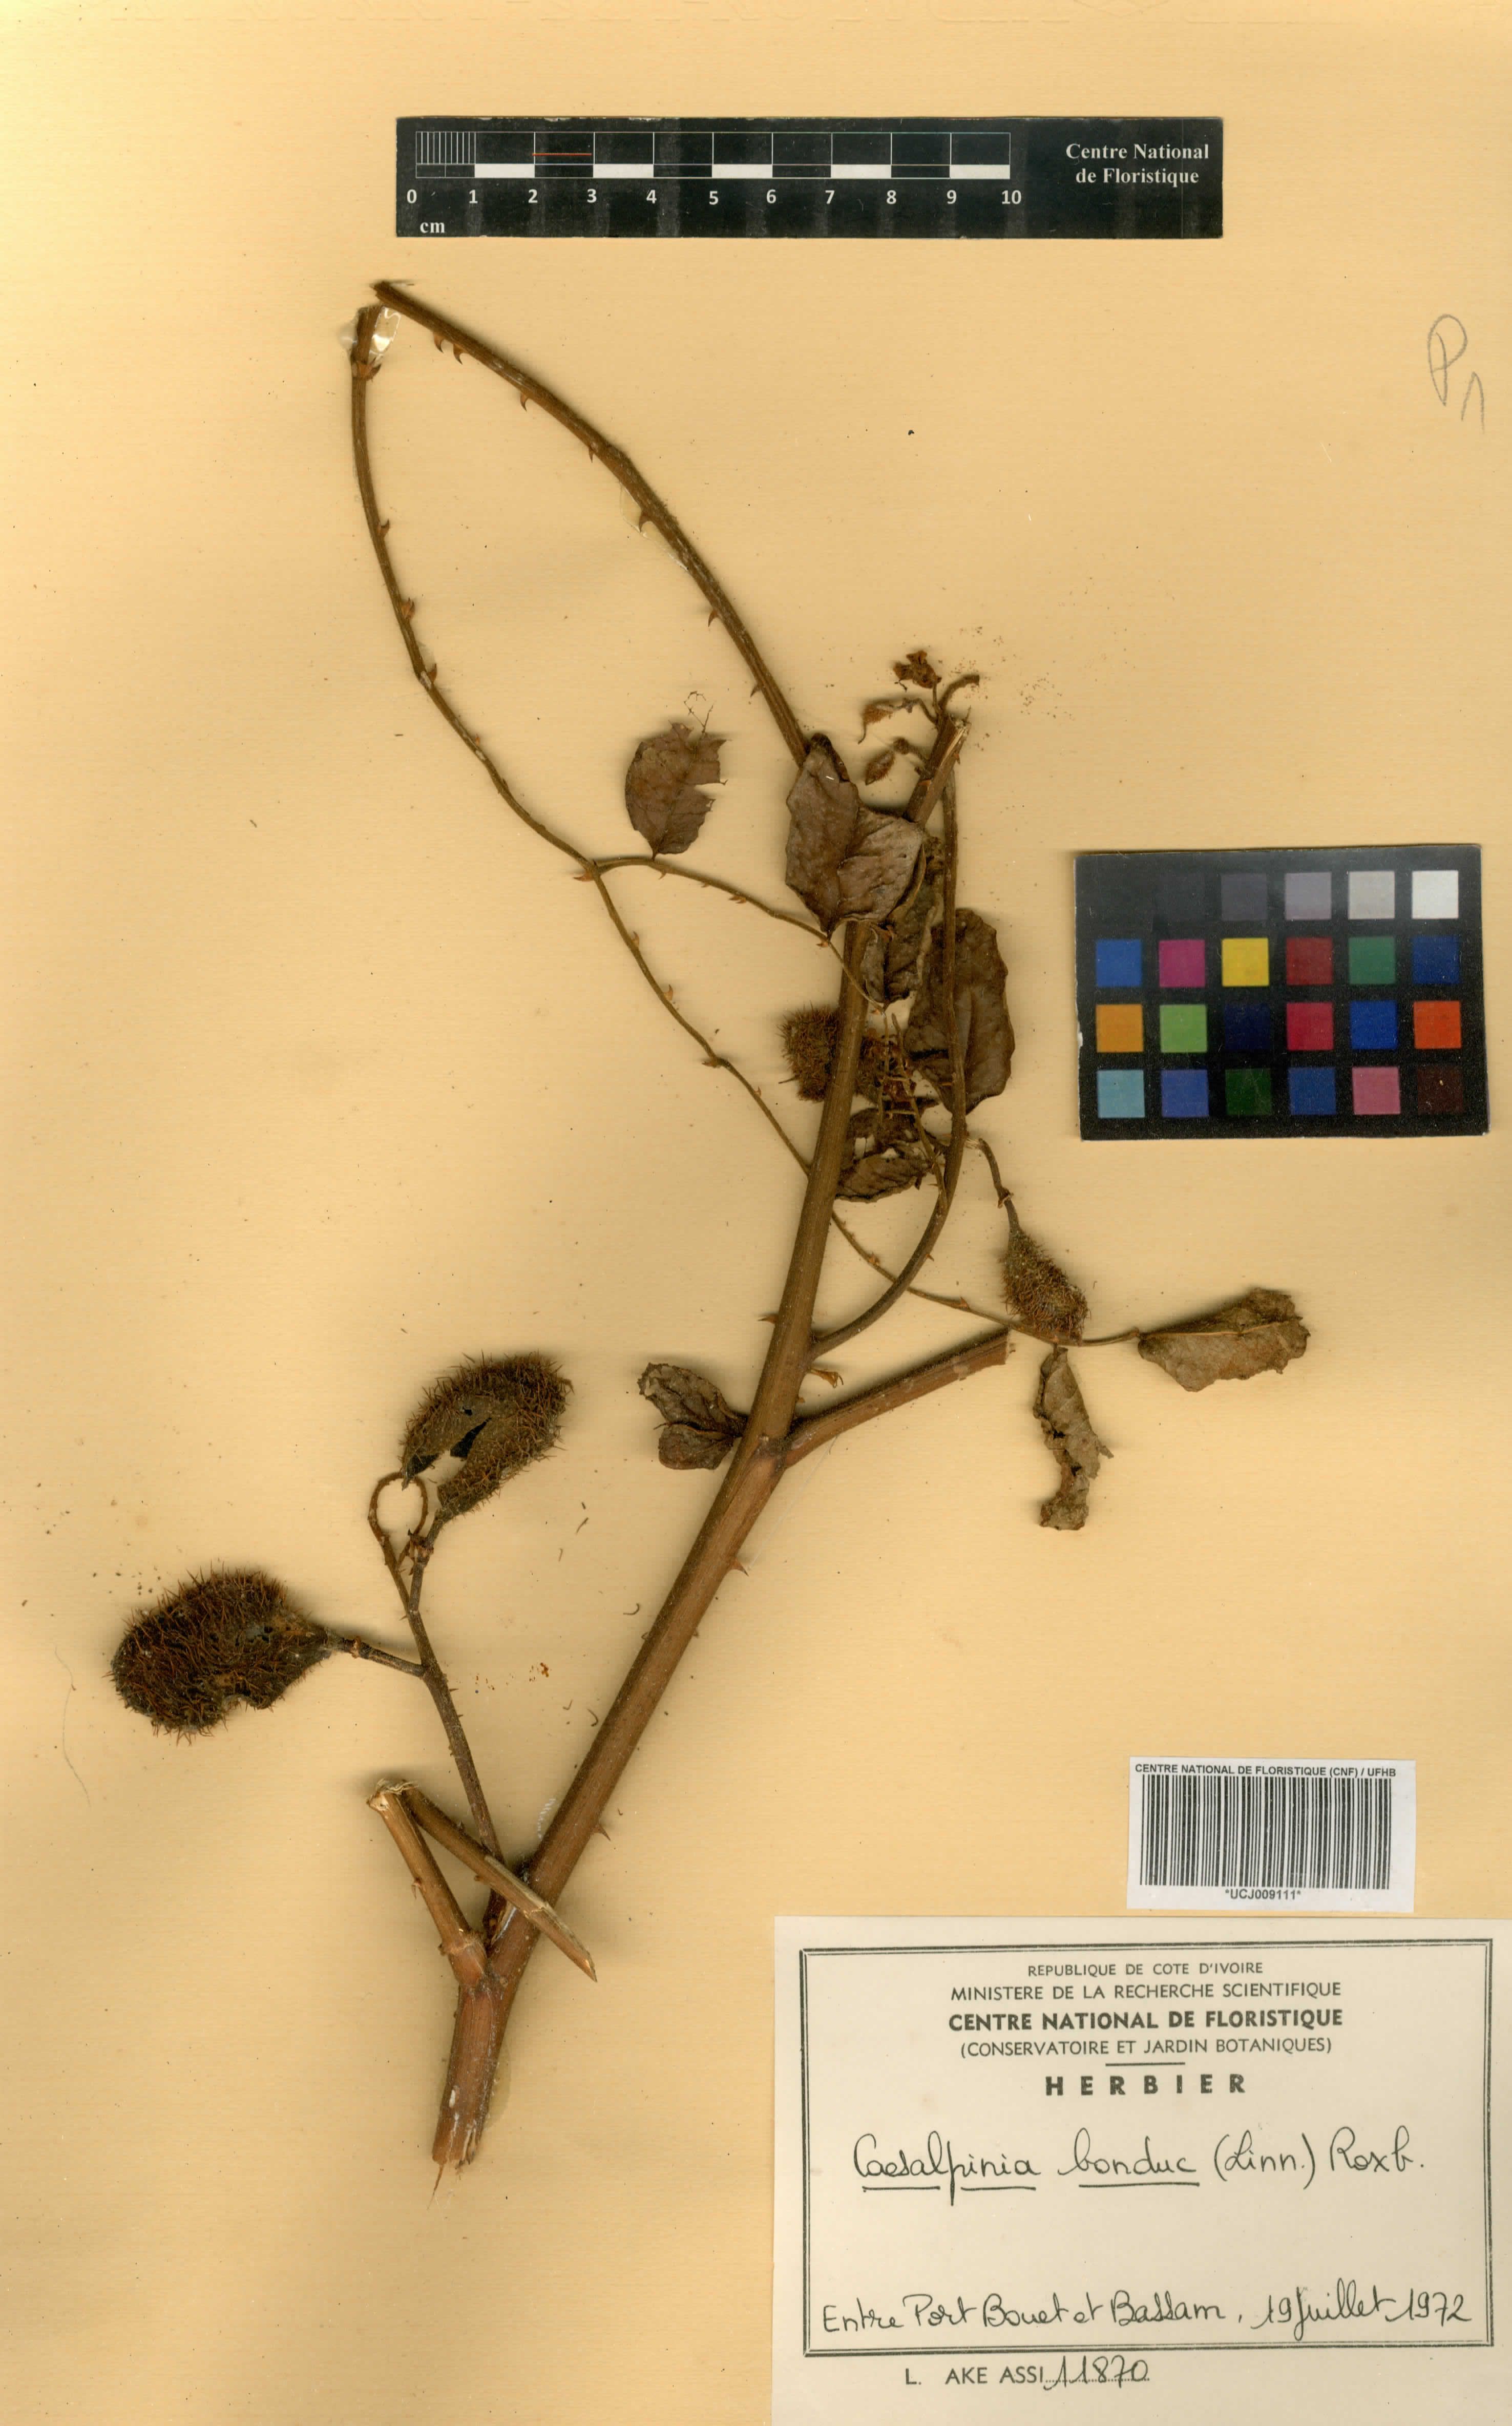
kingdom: Plantae
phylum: Tracheophyta
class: Magnoliopsida
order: Fabales
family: Fabaceae
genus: Guilandina
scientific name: Guilandina bonduc
